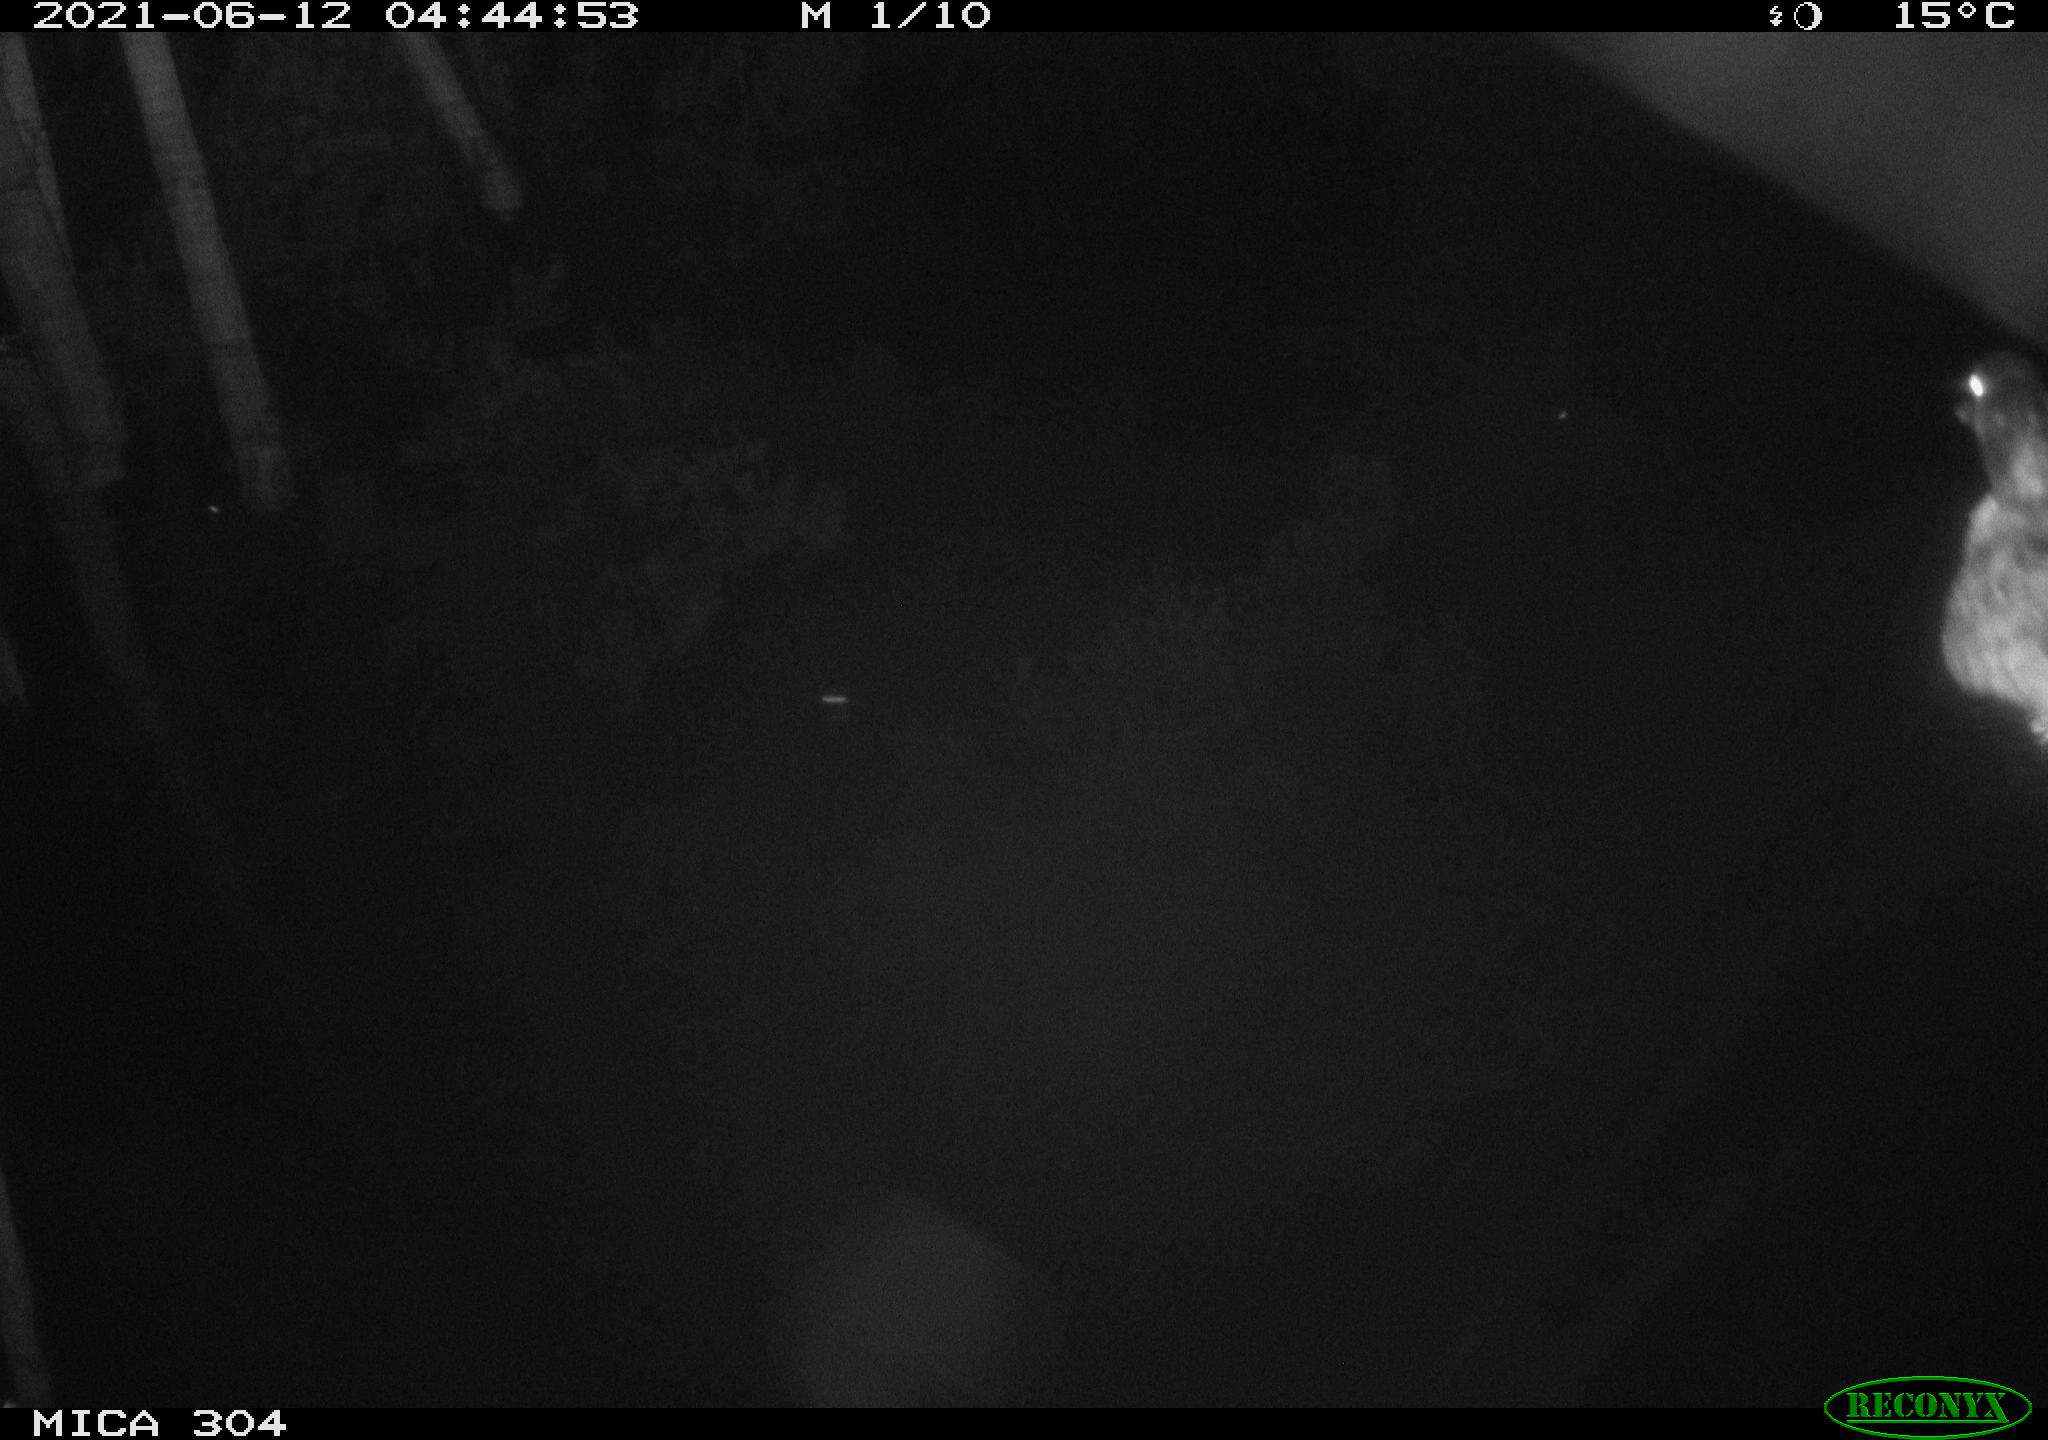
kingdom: Animalia
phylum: Chordata
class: Aves
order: Anseriformes
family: Anatidae
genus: Anas
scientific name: Anas platyrhynchos
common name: Mallard
